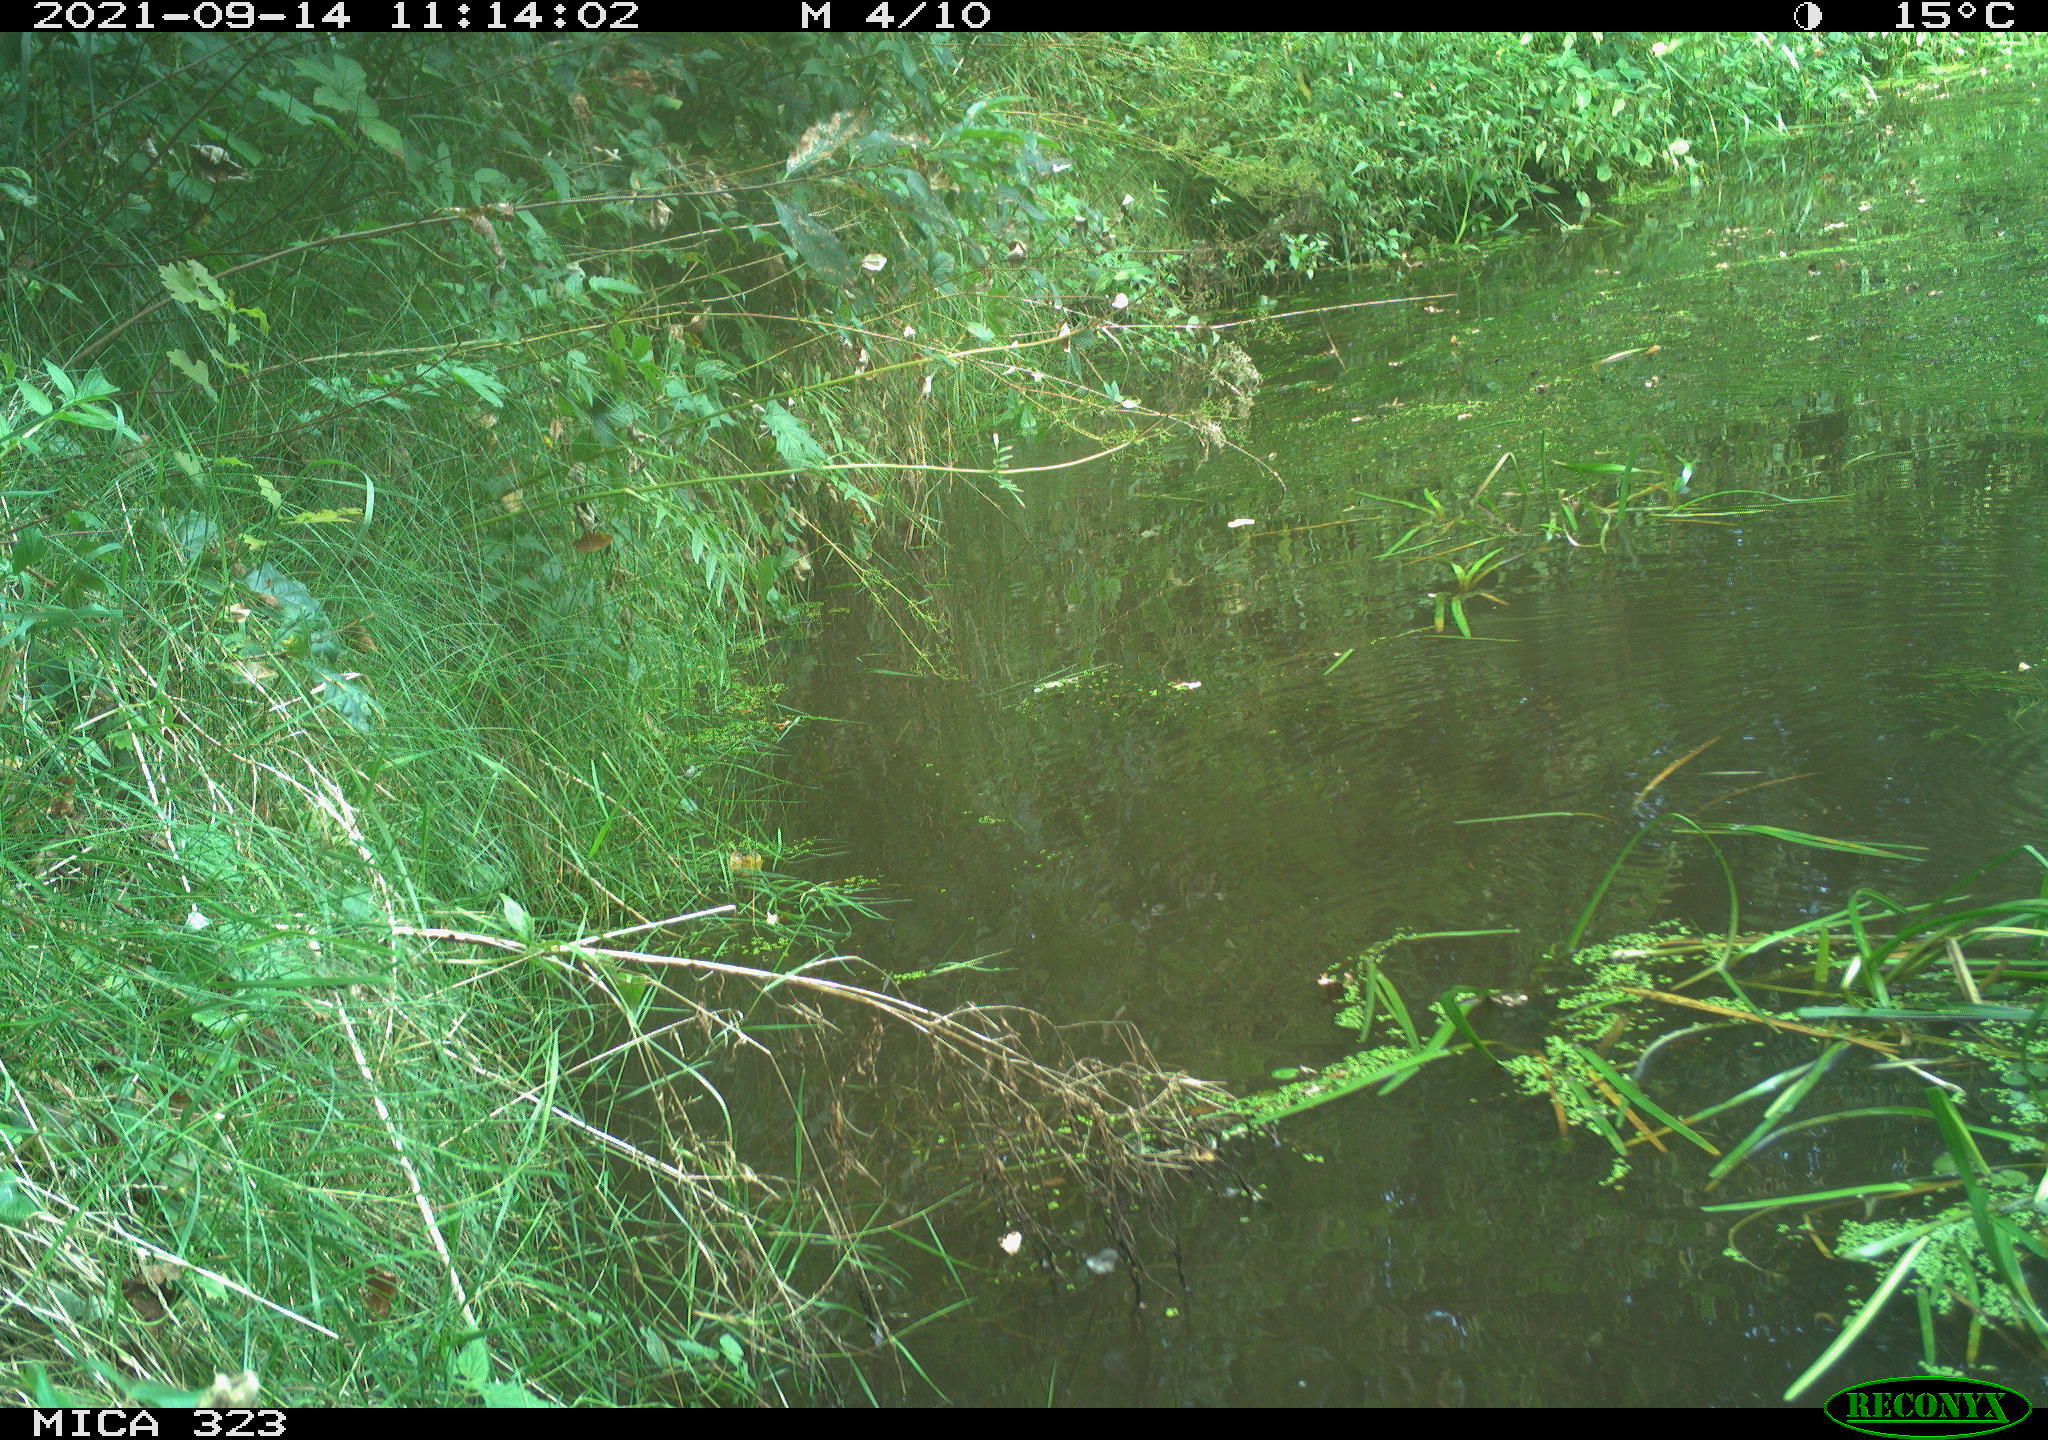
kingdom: Animalia
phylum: Chordata
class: Aves
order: Gruiformes
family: Rallidae
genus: Gallinula
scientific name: Gallinula chloropus
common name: Common moorhen
